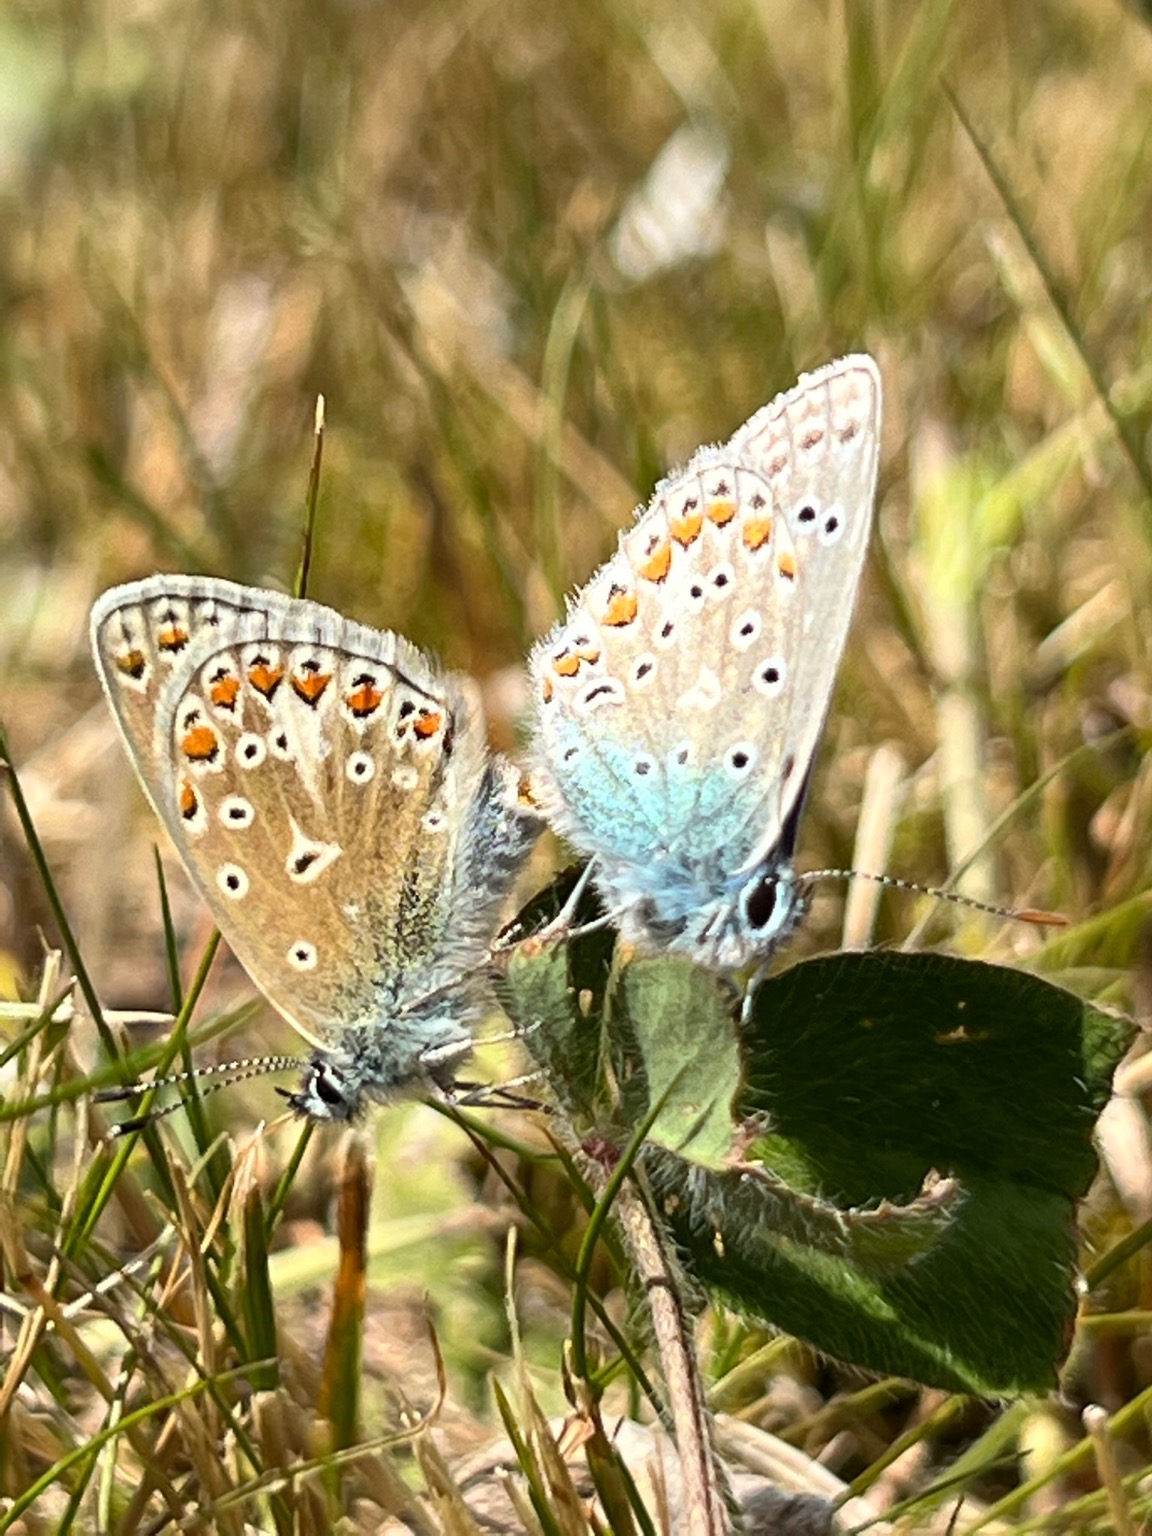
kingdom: Animalia
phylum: Arthropoda
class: Insecta
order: Lepidoptera
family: Lycaenidae
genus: Polyommatus
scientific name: Polyommatus icarus
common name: Almindelig blåfugl
